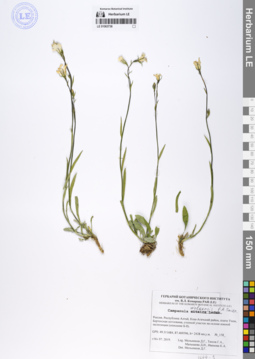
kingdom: Plantae
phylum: Tracheophyta
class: Magnoliopsida
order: Asterales
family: Campanulaceae
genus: Campanula
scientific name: Campanula stevenii
